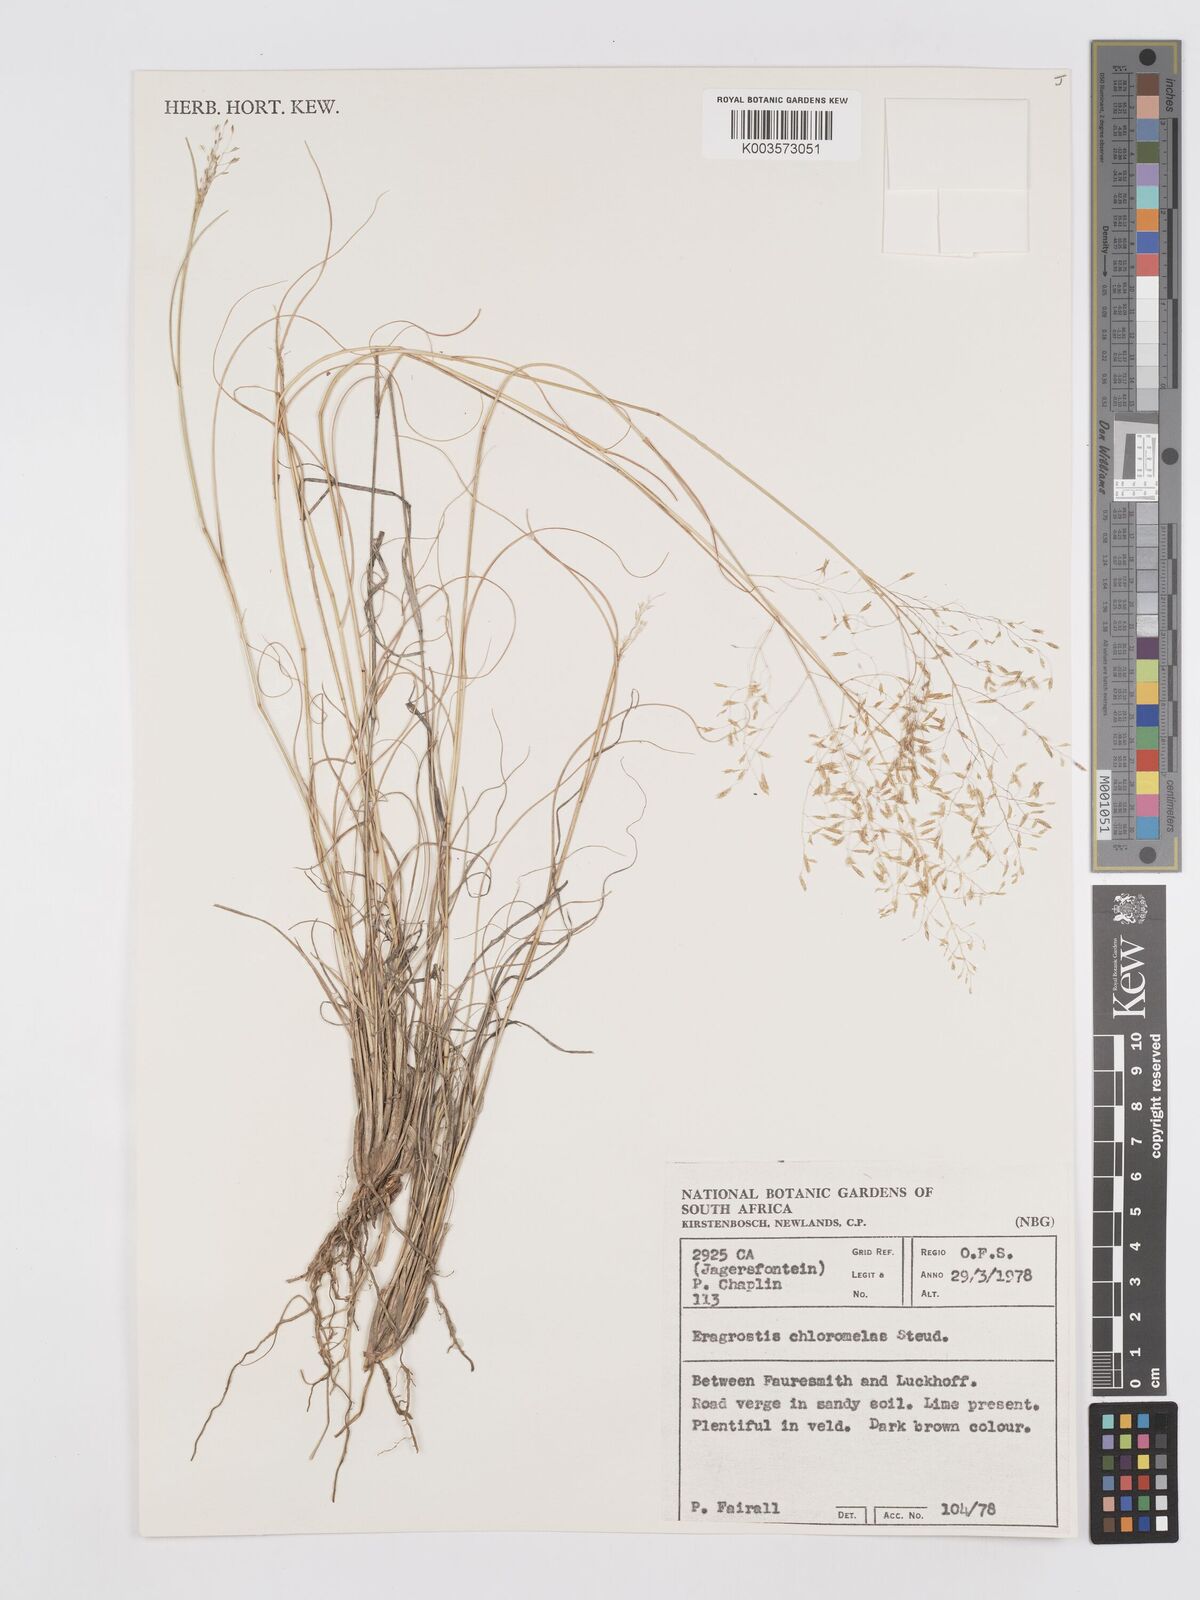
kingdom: Plantae
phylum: Tracheophyta
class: Liliopsida
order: Poales
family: Poaceae
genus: Eragrostis
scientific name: Eragrostis curvula
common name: African love-grass
